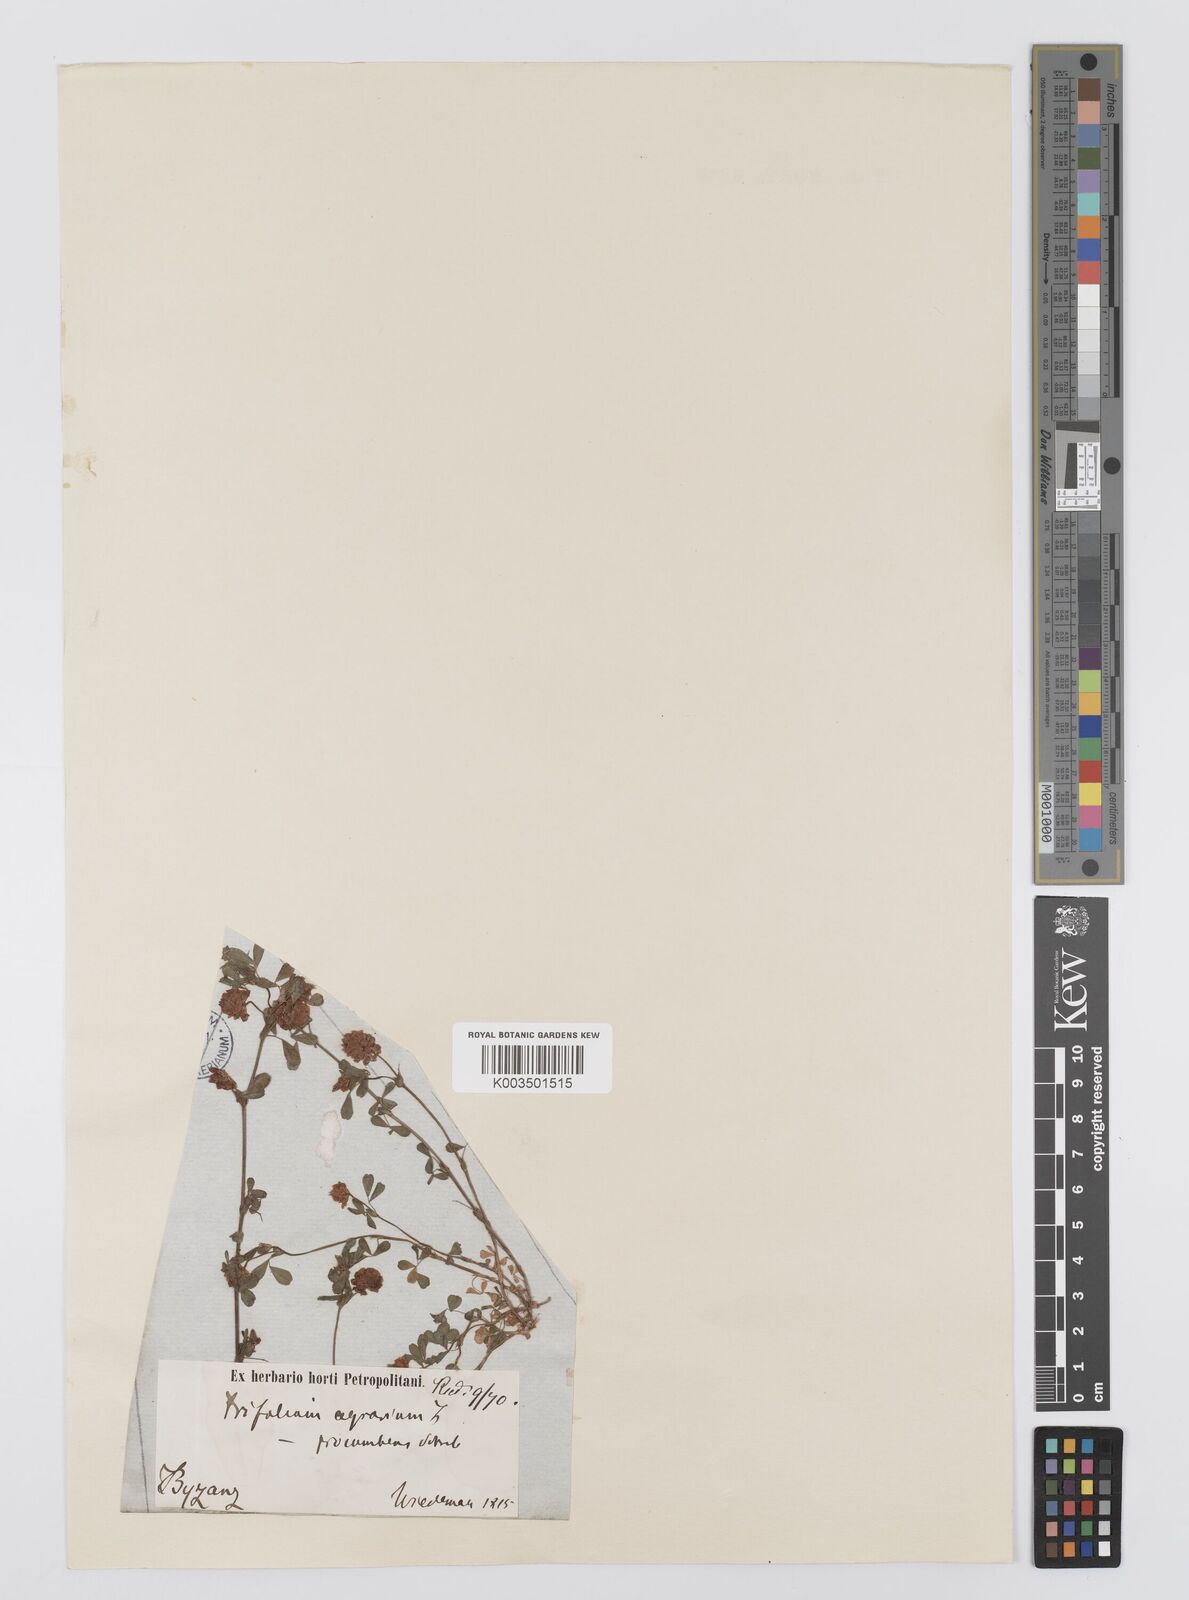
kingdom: Plantae
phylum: Tracheophyta
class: Magnoliopsida
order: Fabales
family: Fabaceae
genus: Trifolium
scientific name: Trifolium campestre
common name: Field clover
